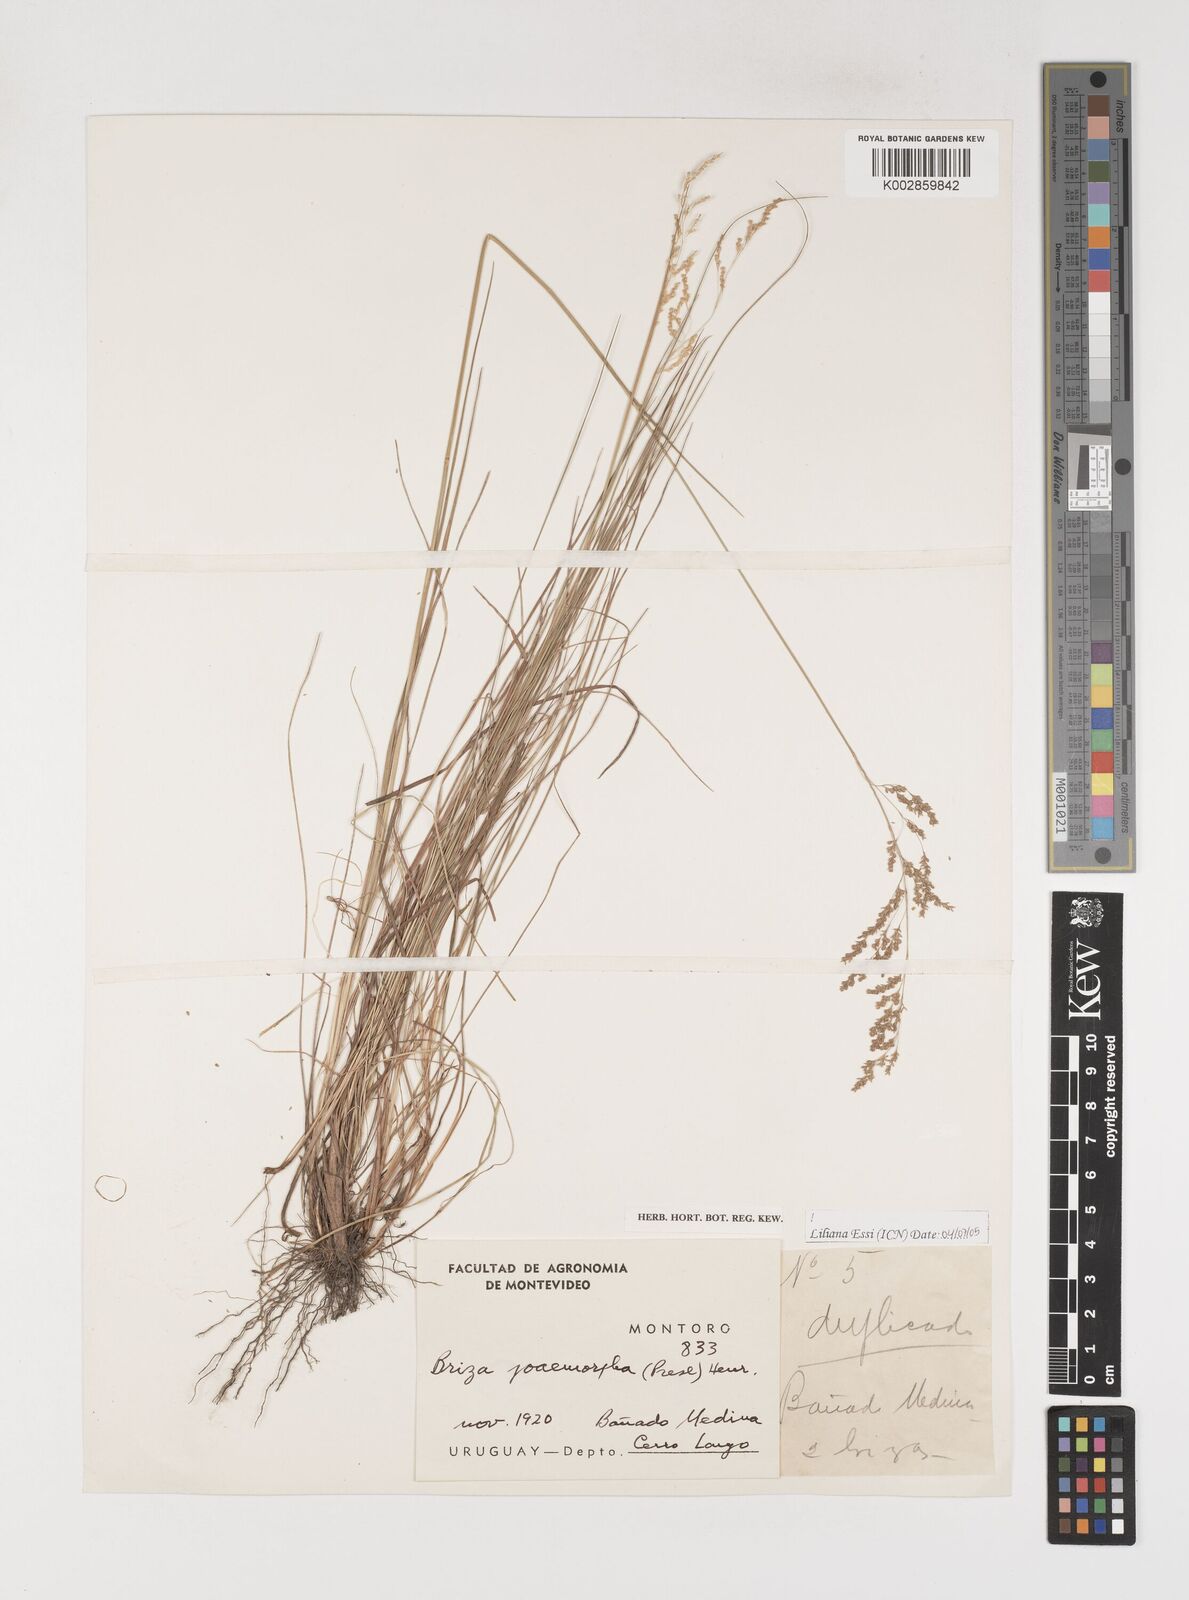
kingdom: Plantae
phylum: Tracheophyta
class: Liliopsida
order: Poales
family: Poaceae
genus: Microbriza
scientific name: Microbriza poimorpha
